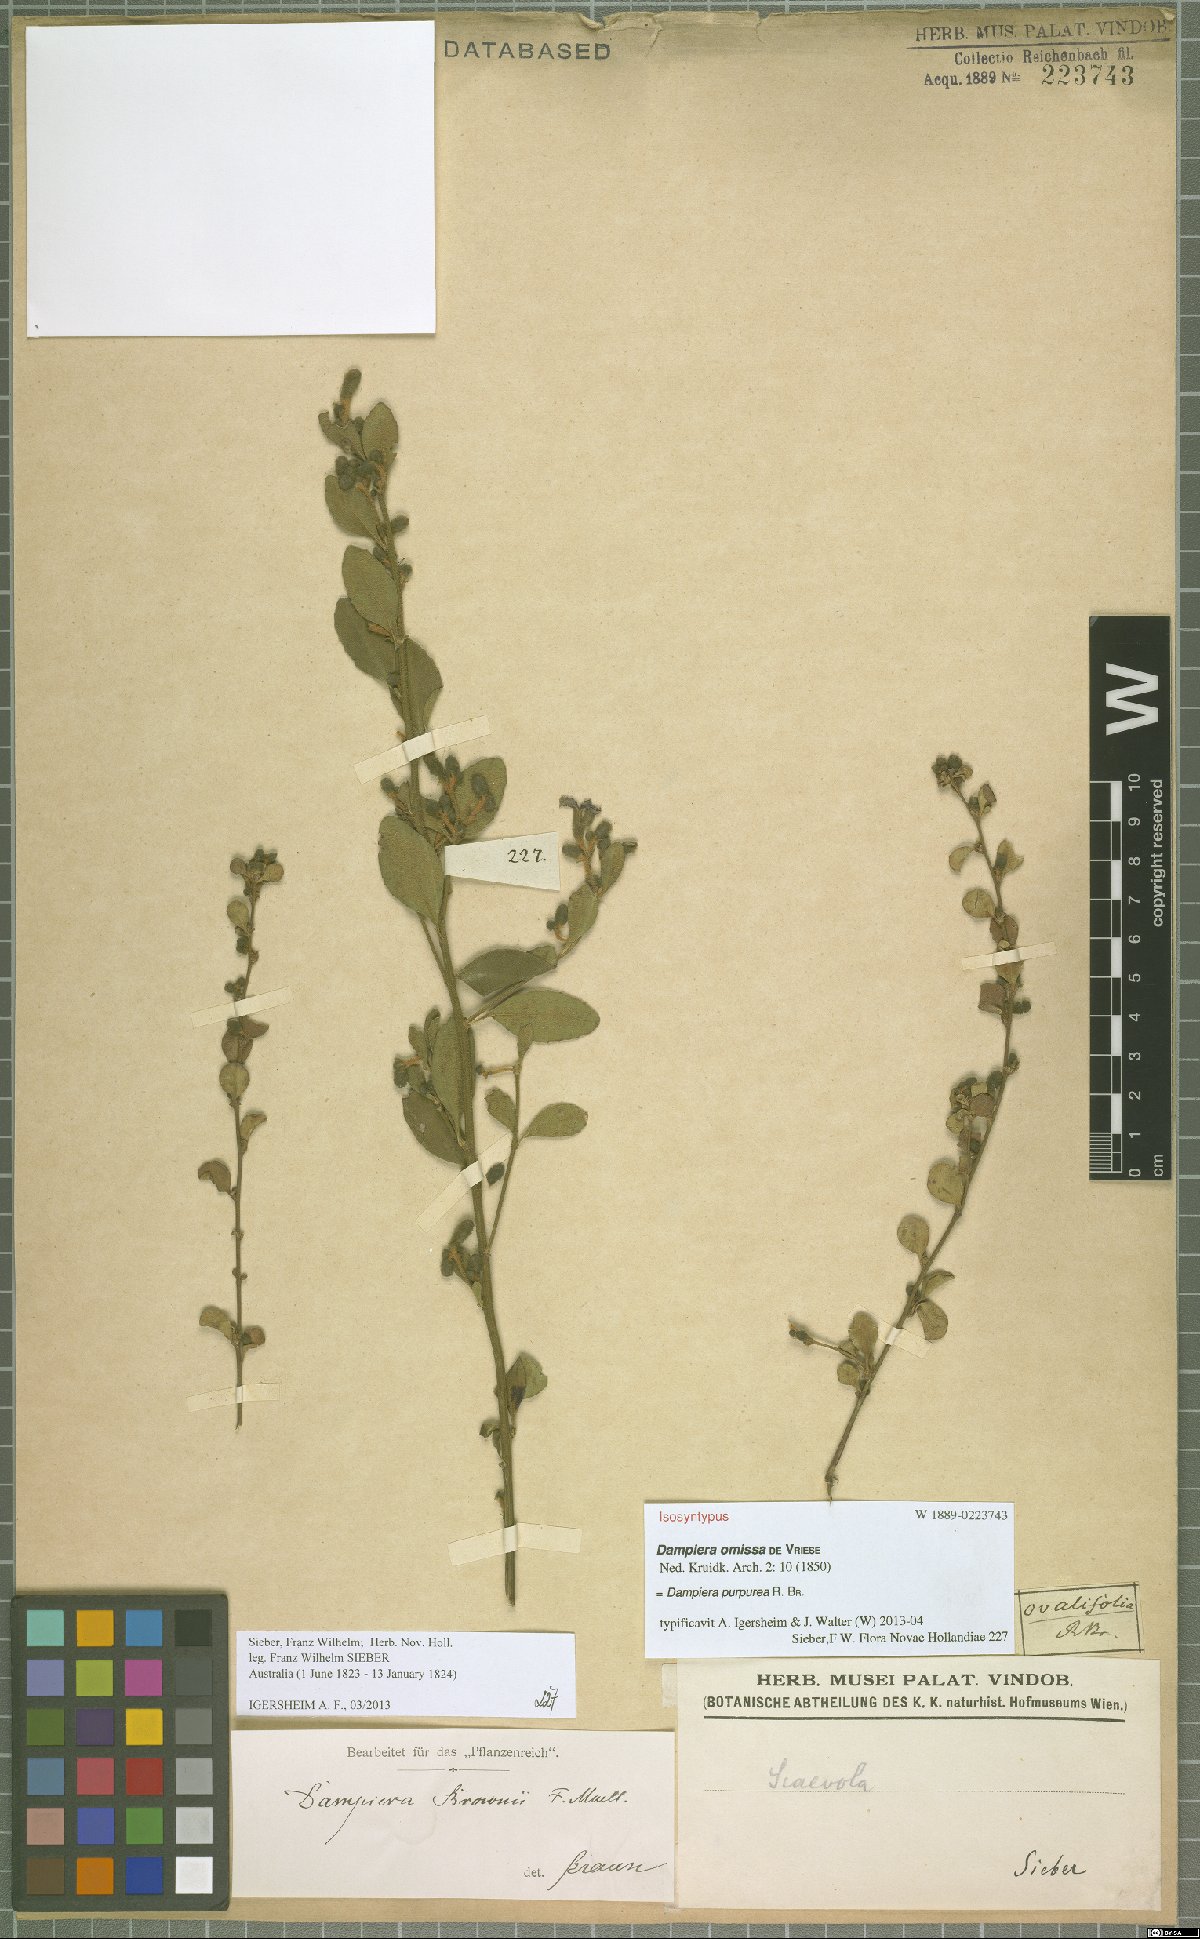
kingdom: Plantae
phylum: Tracheophyta
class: Magnoliopsida
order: Asterales
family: Goodeniaceae
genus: Dampiera
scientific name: Dampiera purpurea
